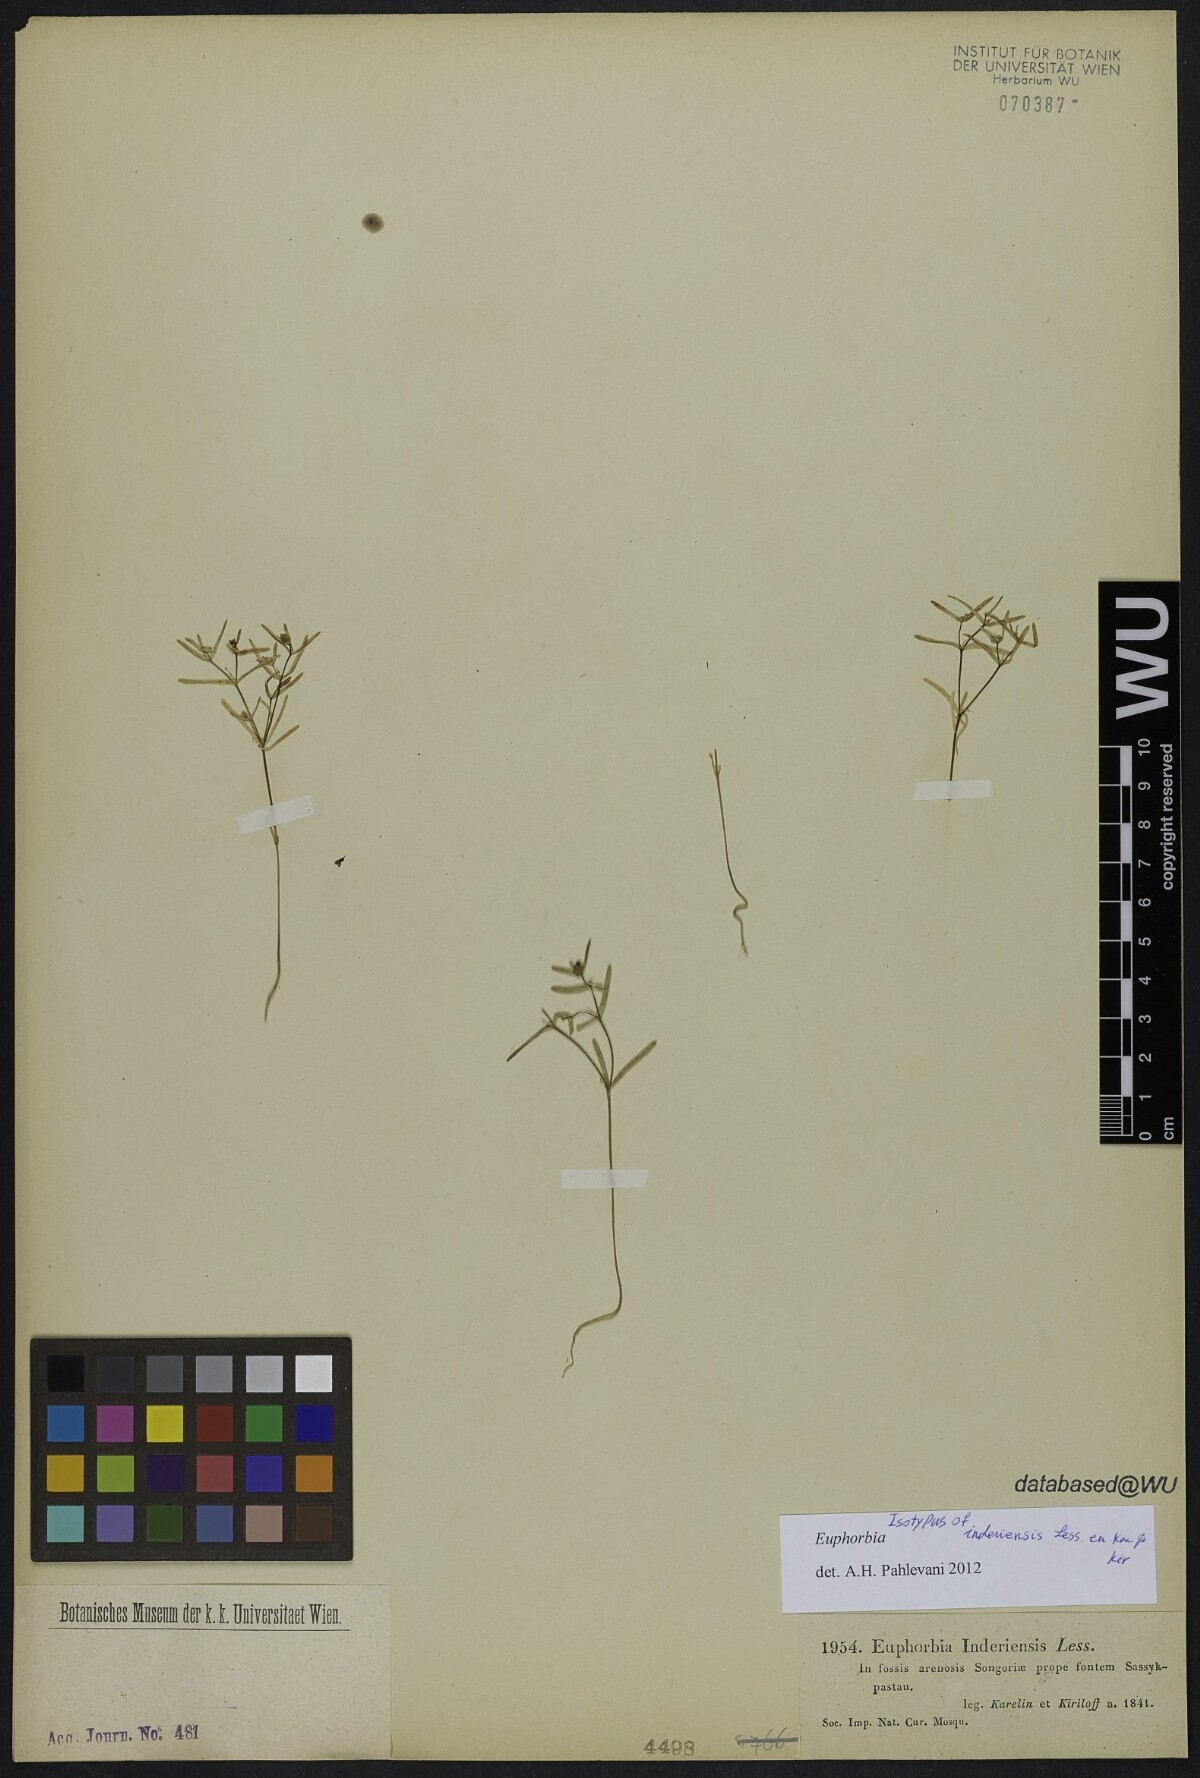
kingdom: Plantae
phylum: Tracheophyta
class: Magnoliopsida
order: Malpighiales
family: Euphorbiaceae
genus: Euphorbia
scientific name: Euphorbia inderiensis
